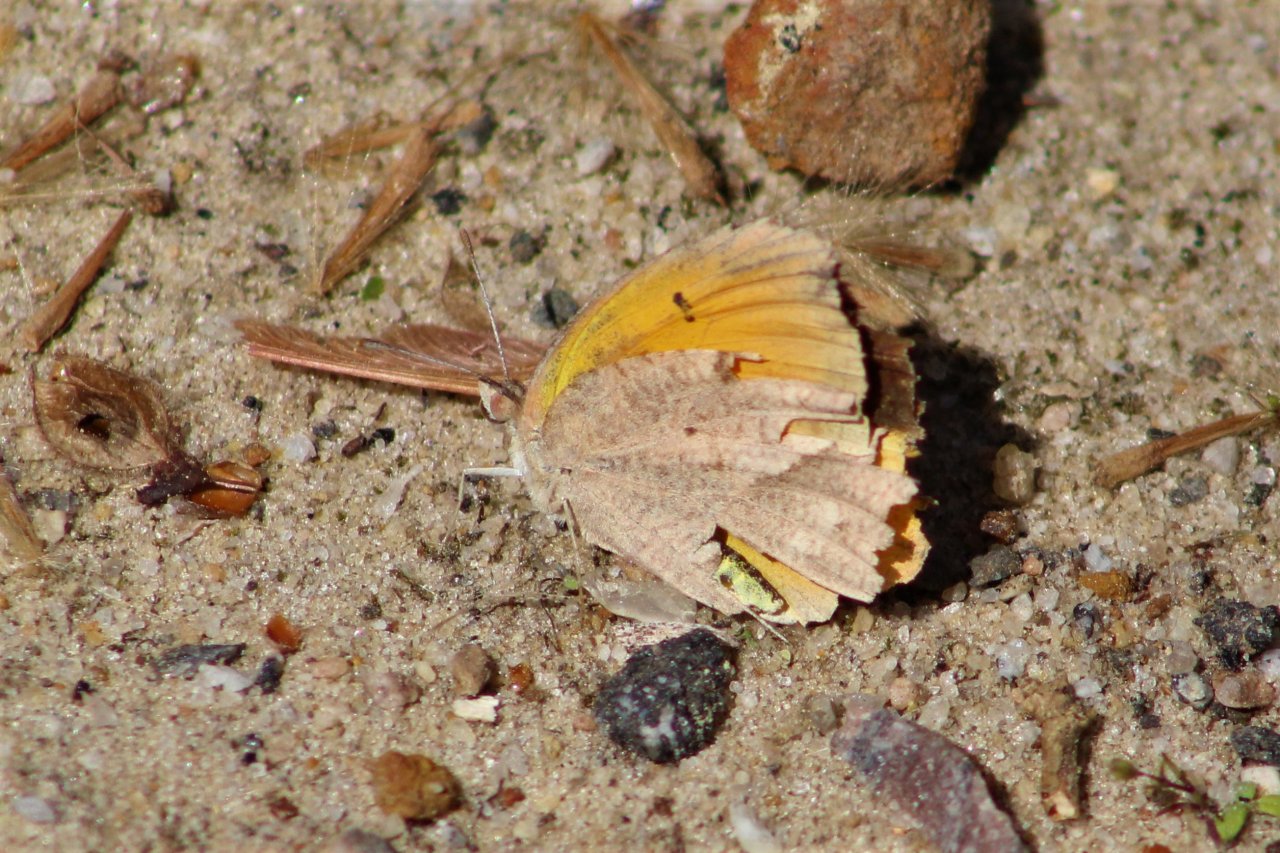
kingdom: Animalia
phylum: Arthropoda
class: Insecta
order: Lepidoptera
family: Pieridae
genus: Abaeis
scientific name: Abaeis nicippe
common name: Sleepy Orange
